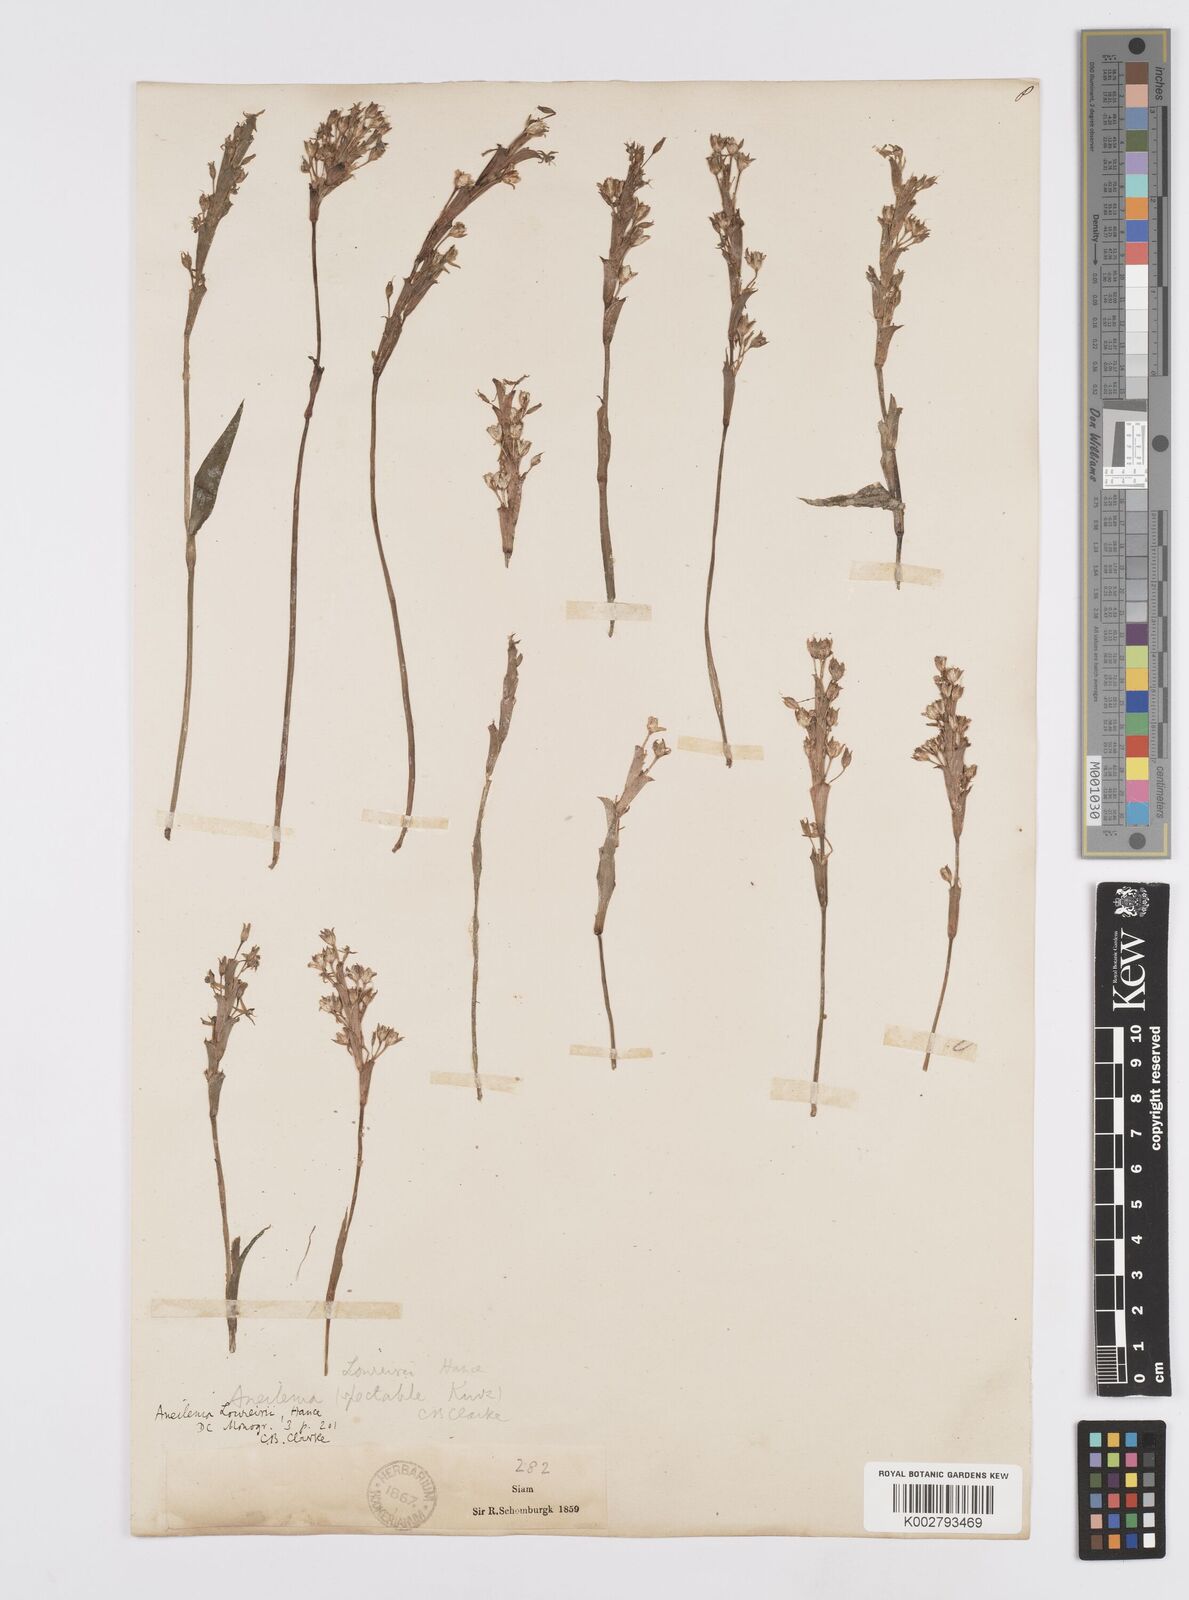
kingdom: Plantae
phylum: Tracheophyta
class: Liliopsida
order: Commelinales
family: Commelinaceae
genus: Murdannia
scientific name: Murdannia edulis
